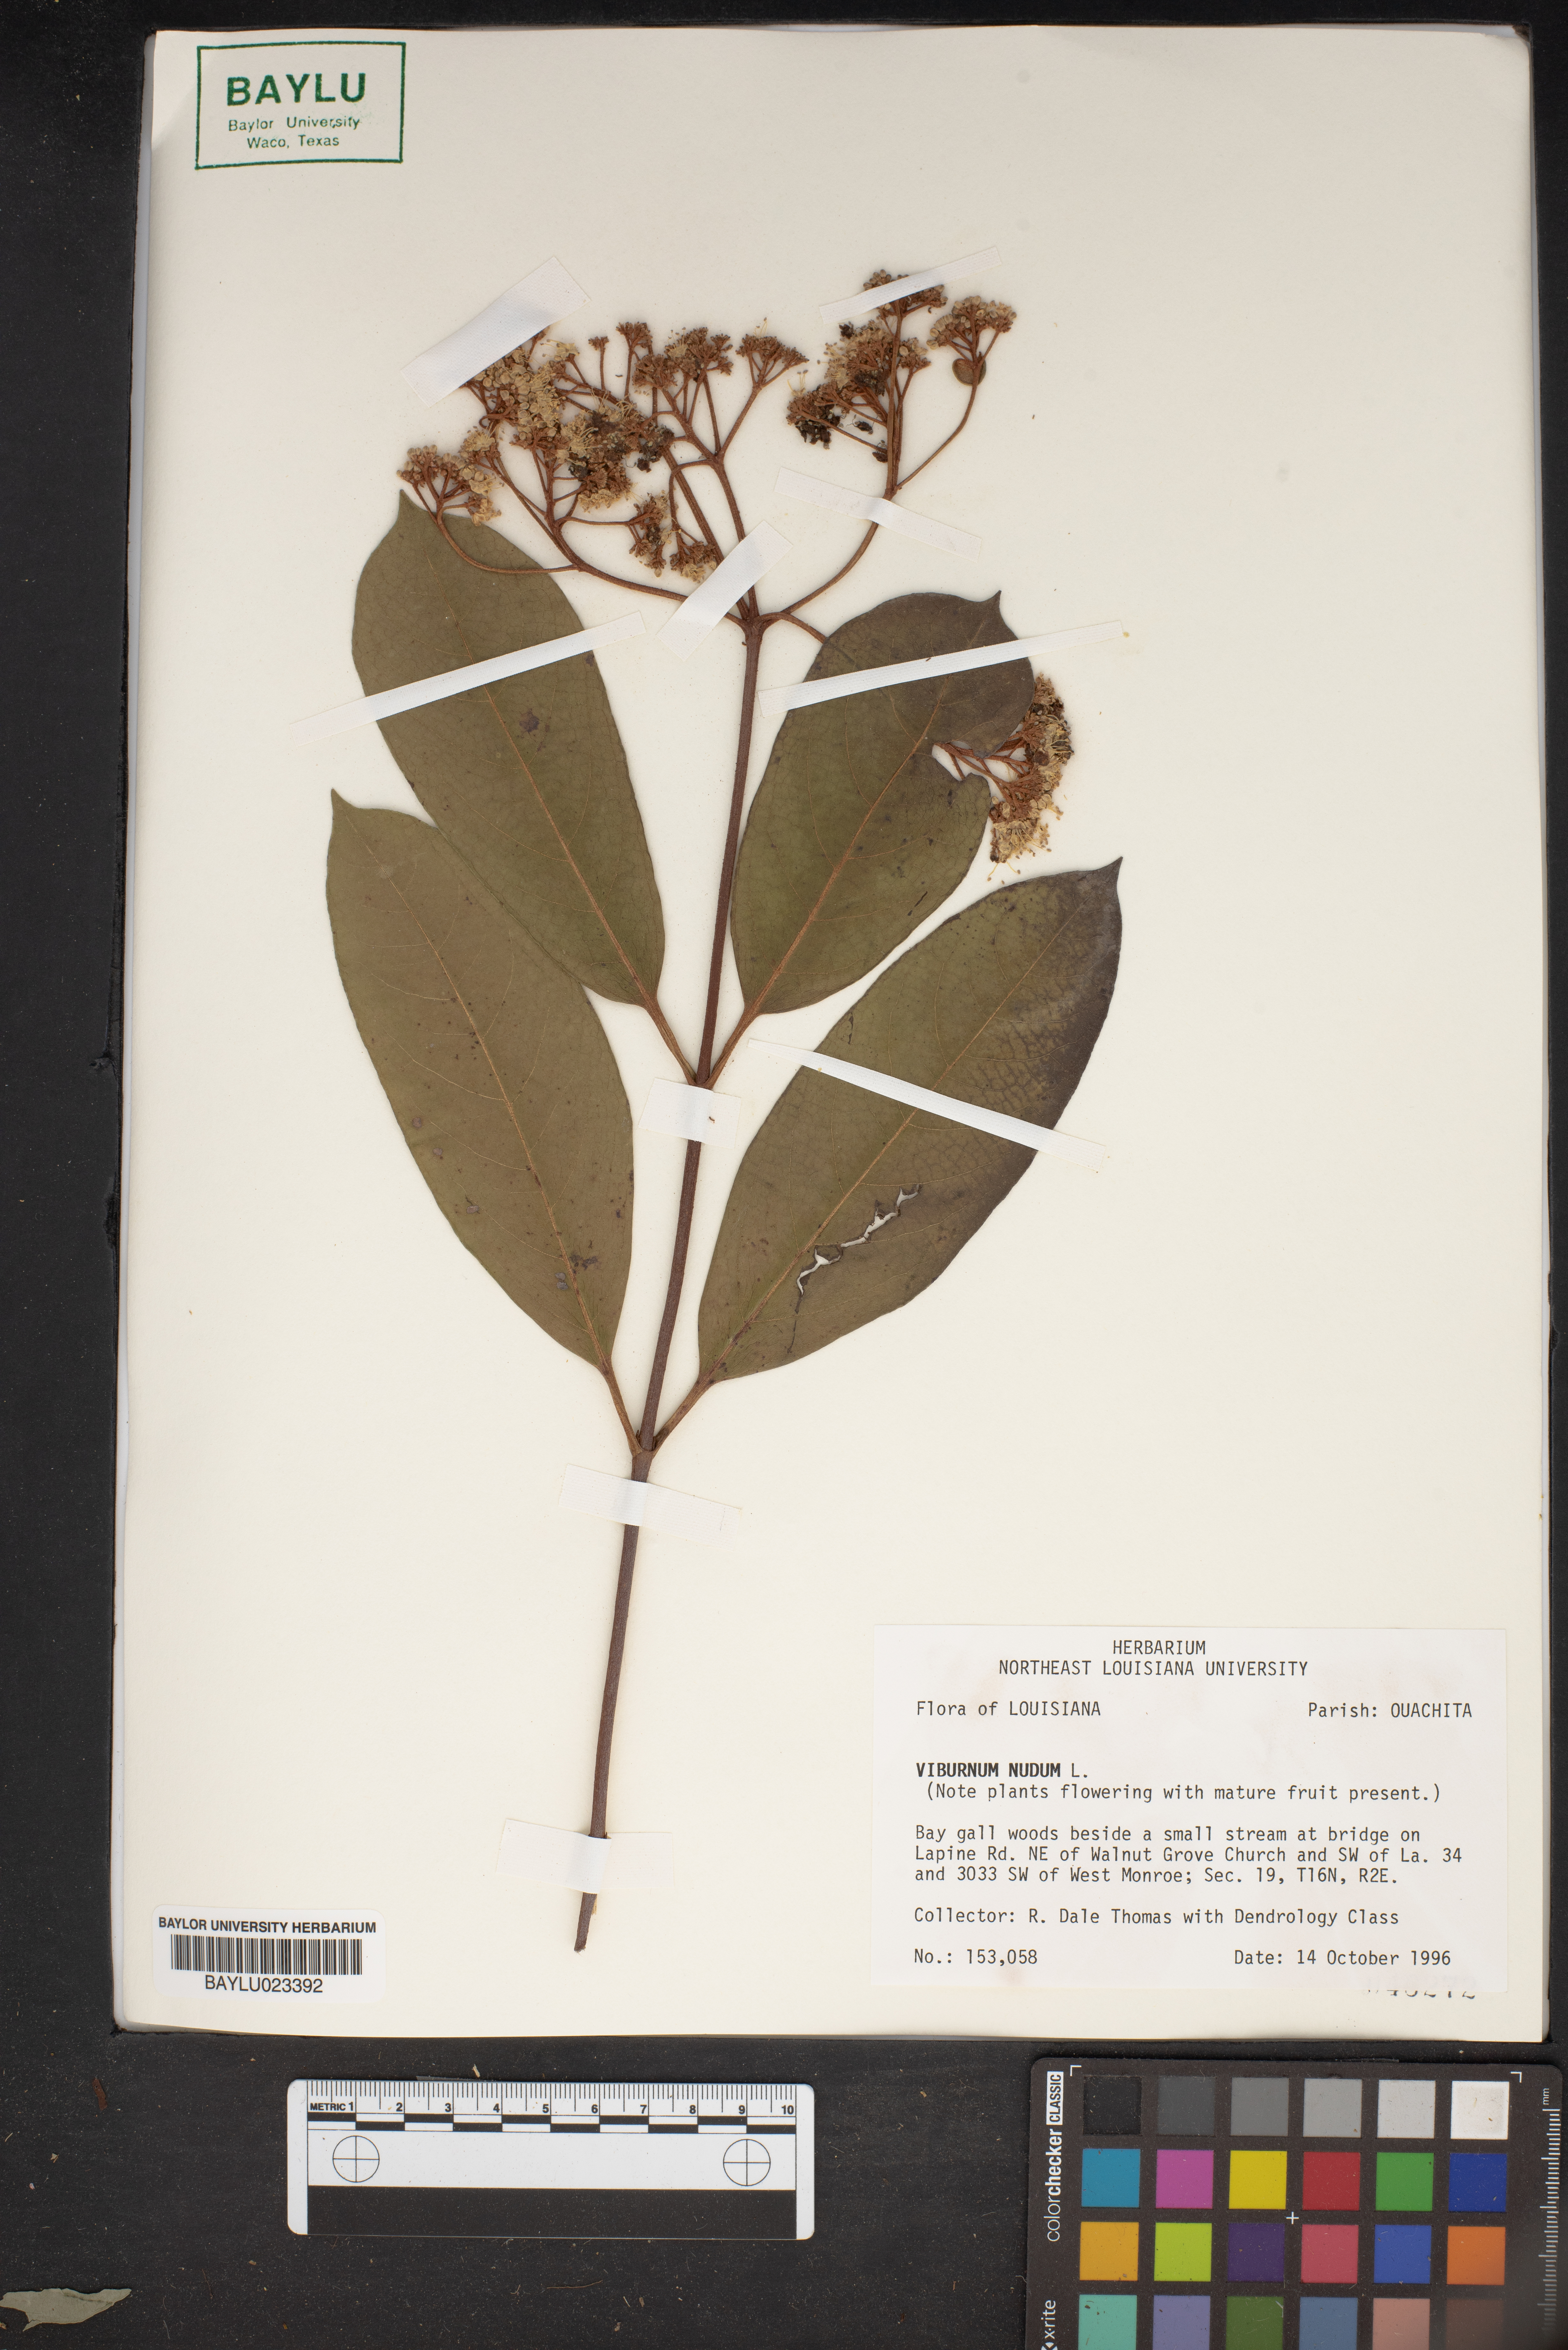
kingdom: Plantae
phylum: Tracheophyta
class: Magnoliopsida
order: Dipsacales
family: Viburnaceae
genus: Viburnum
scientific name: Viburnum nudum
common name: Possum haw
